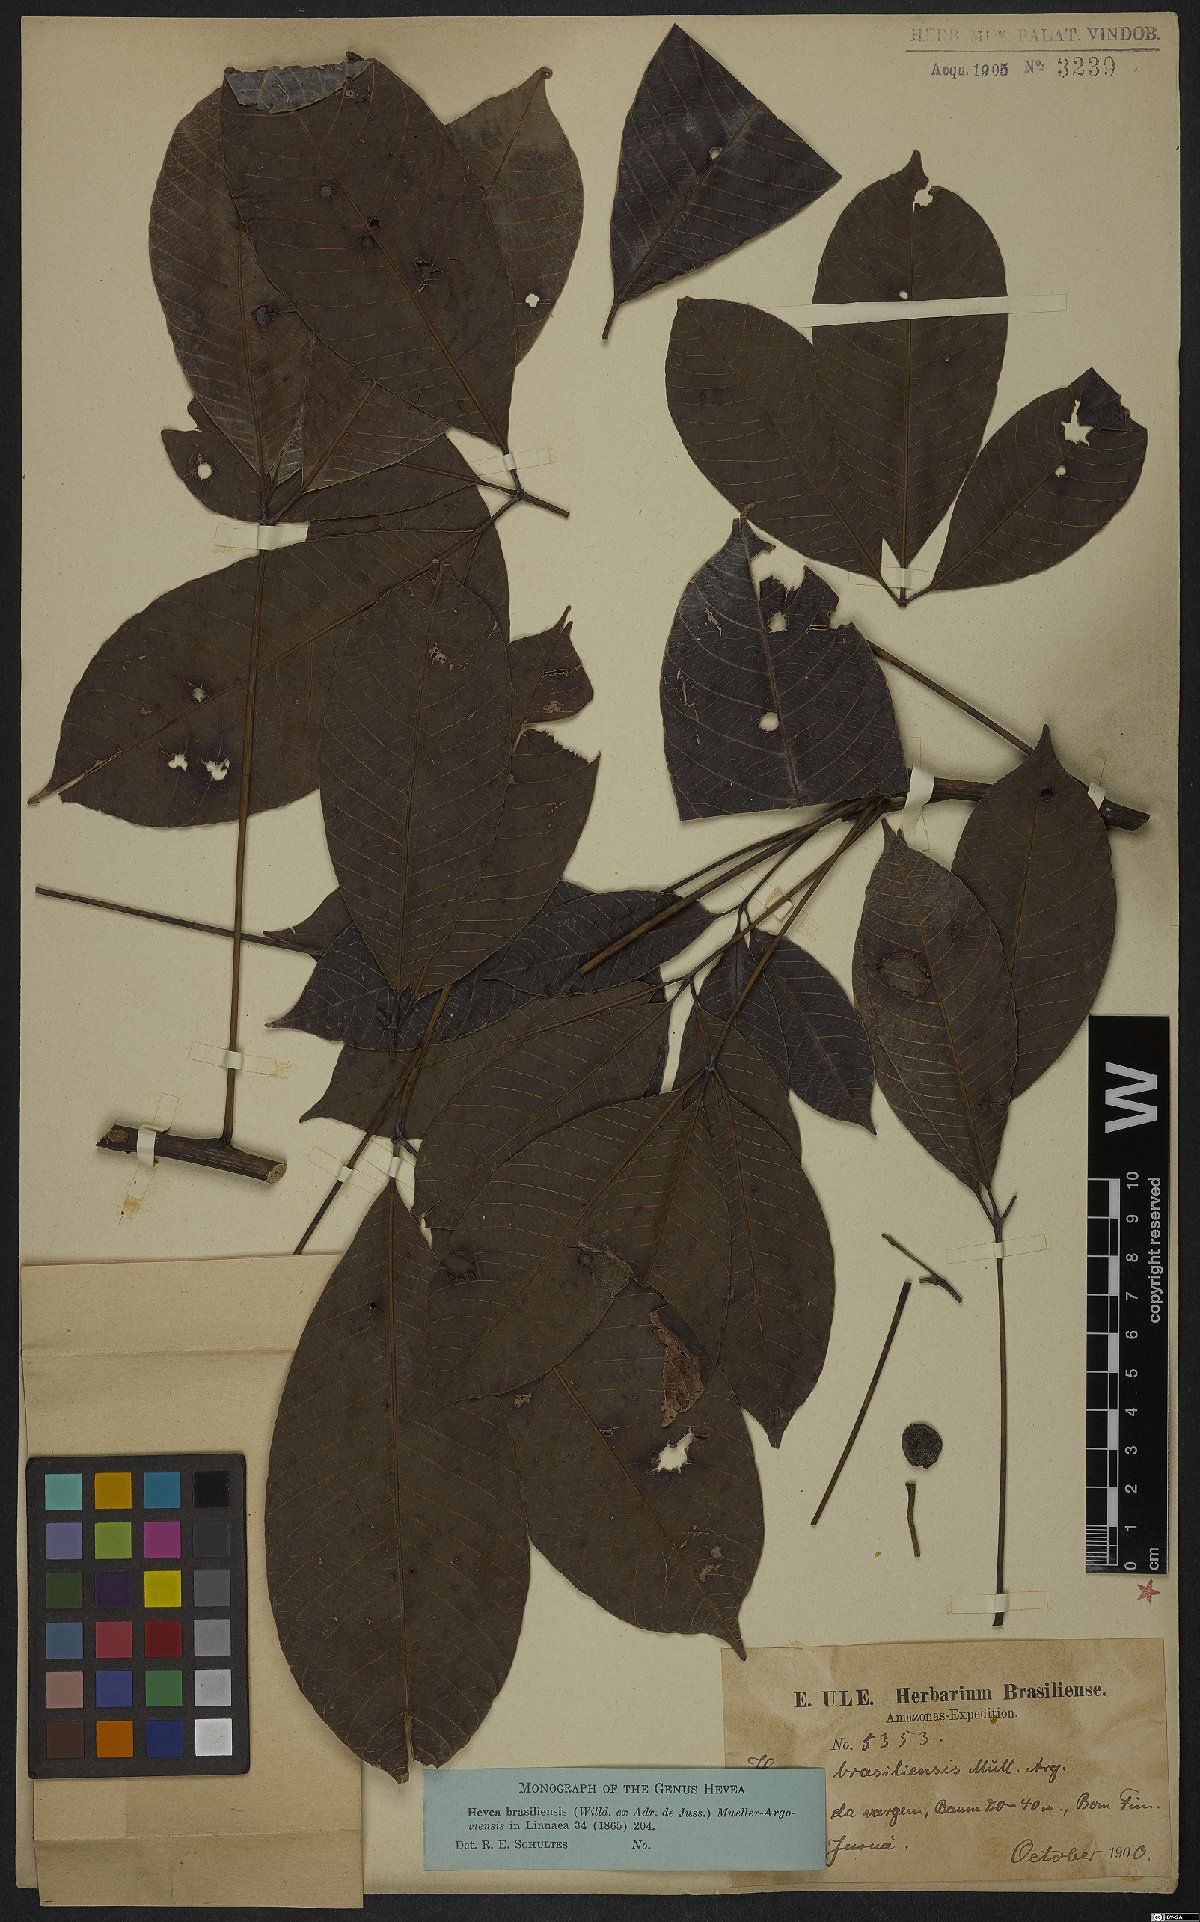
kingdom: Plantae
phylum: Tracheophyta
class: Magnoliopsida
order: Malpighiales
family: Euphorbiaceae
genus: Hevea
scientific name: Hevea brasiliensis
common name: Natural rubber
